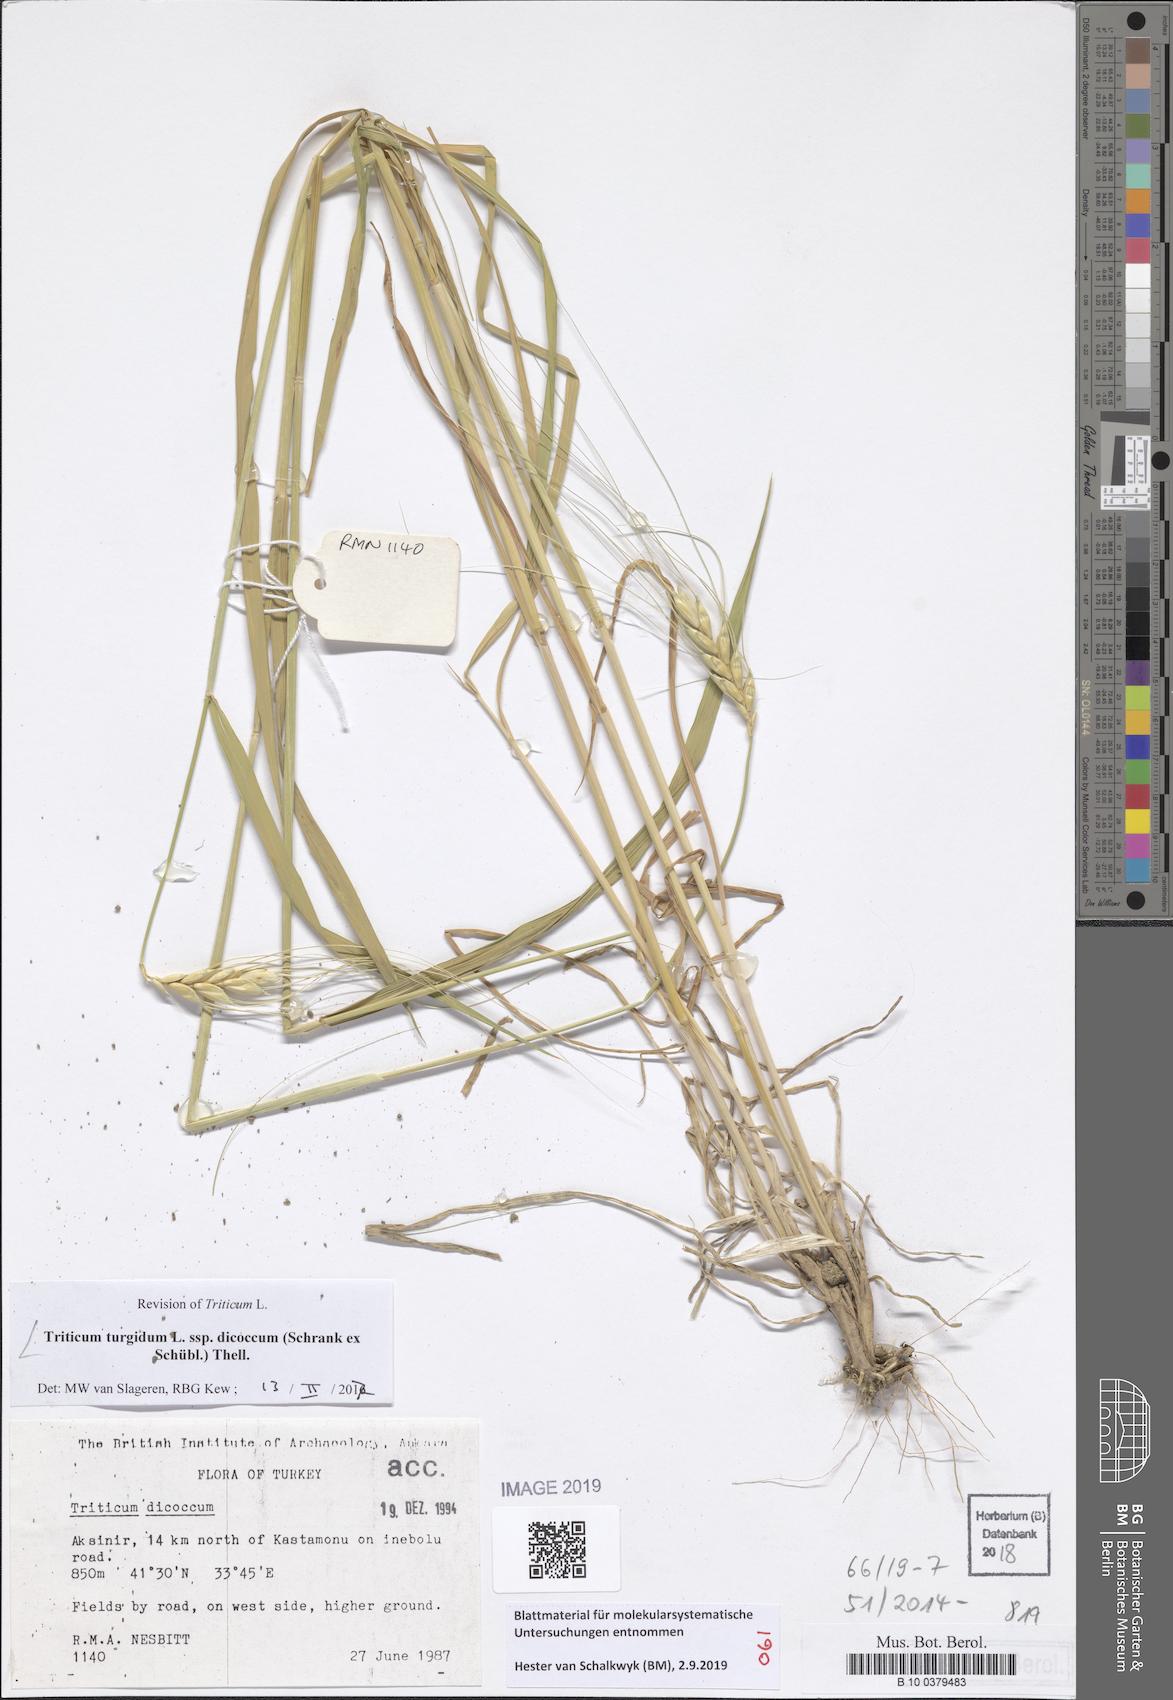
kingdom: Plantae
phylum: Tracheophyta
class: Liliopsida
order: Poales
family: Poaceae
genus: Triticum
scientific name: Triticum turgidum
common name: Rivet wheat
